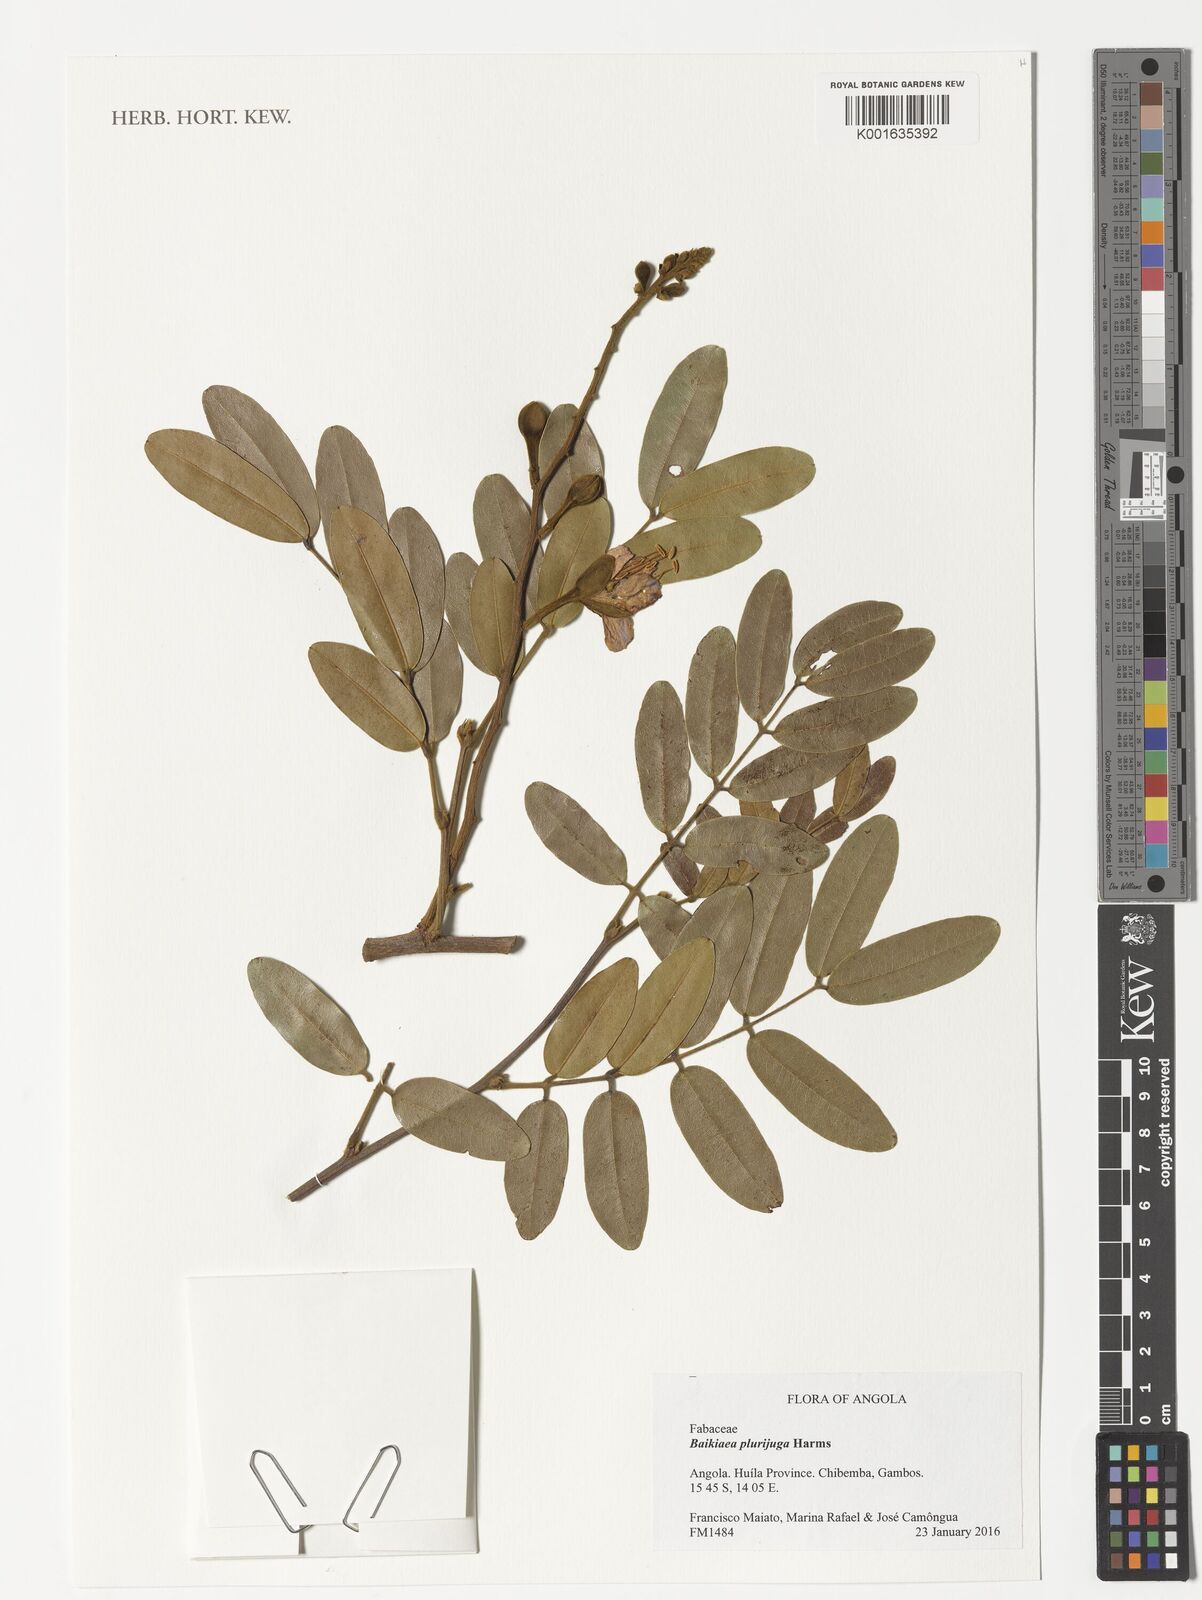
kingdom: Plantae
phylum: Tracheophyta
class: Magnoliopsida
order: Fabales
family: Fabaceae
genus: Baikiaea
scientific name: Baikiaea plurijuga
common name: Rhodesian-teak
